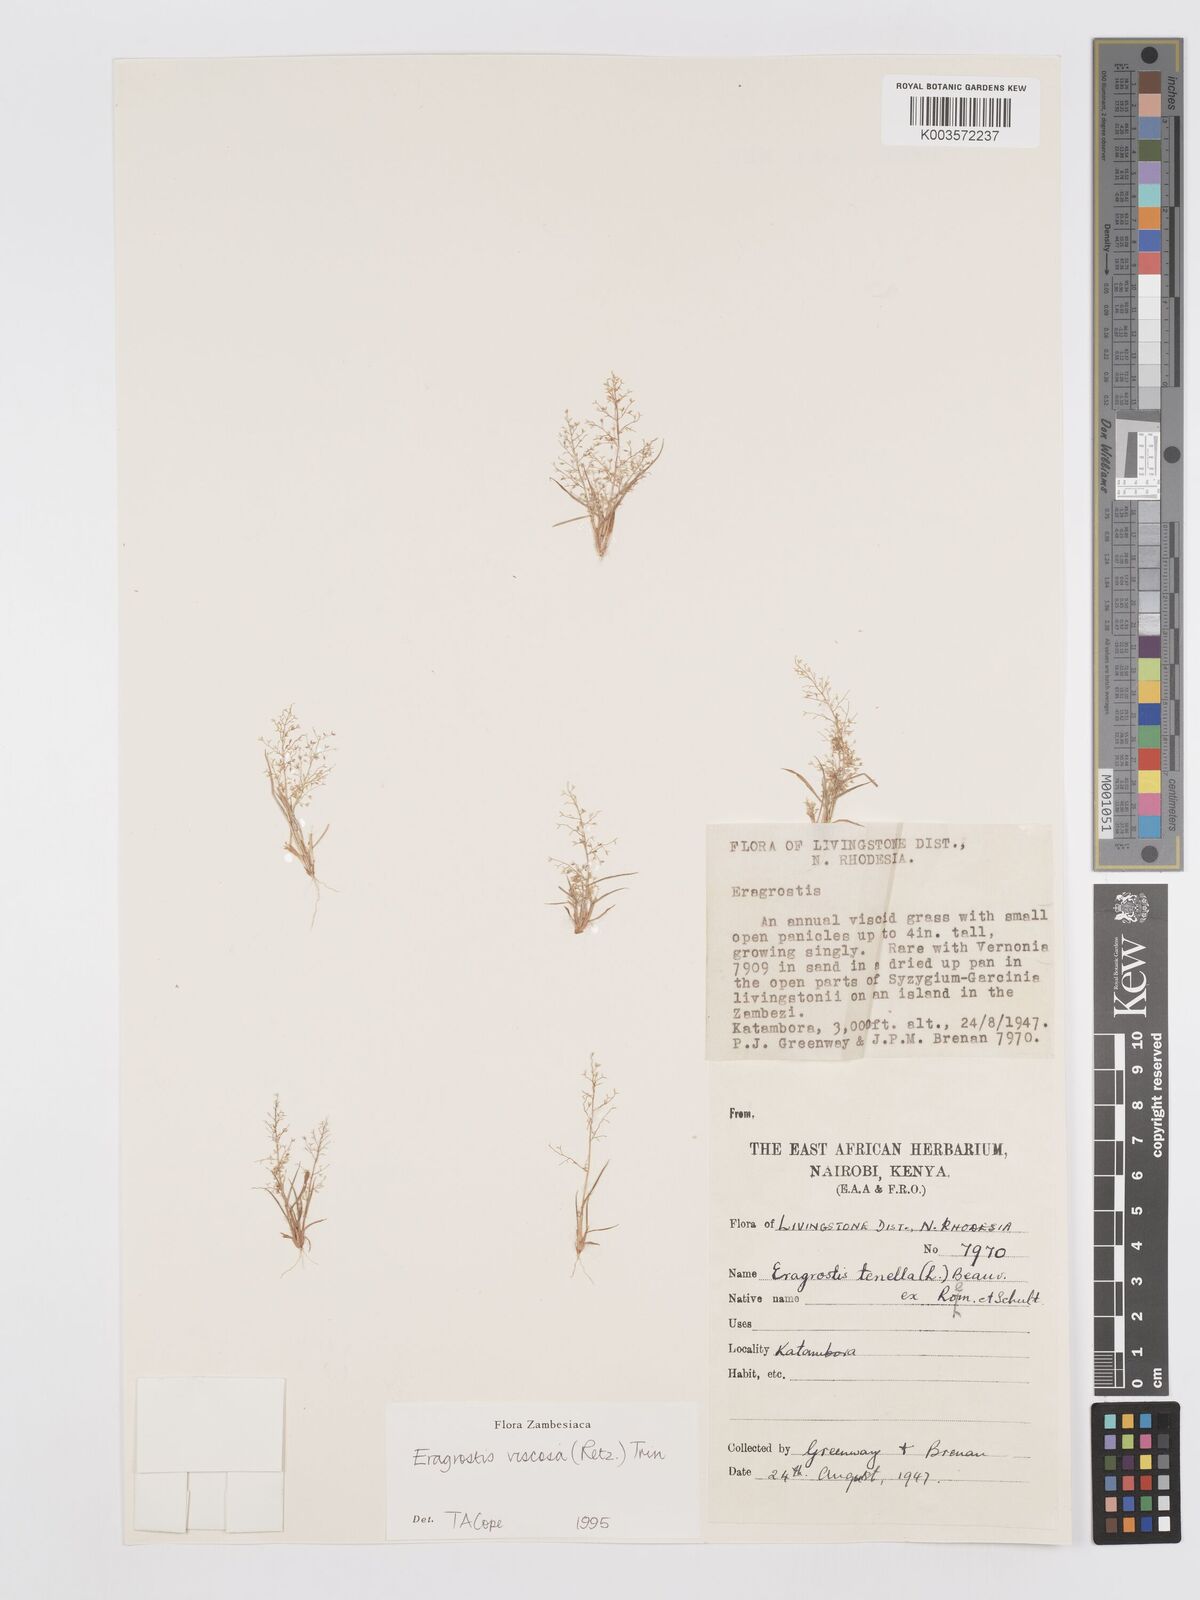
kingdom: Plantae
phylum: Tracheophyta
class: Liliopsida
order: Poales
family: Poaceae
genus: Eragrostis
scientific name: Eragrostis
